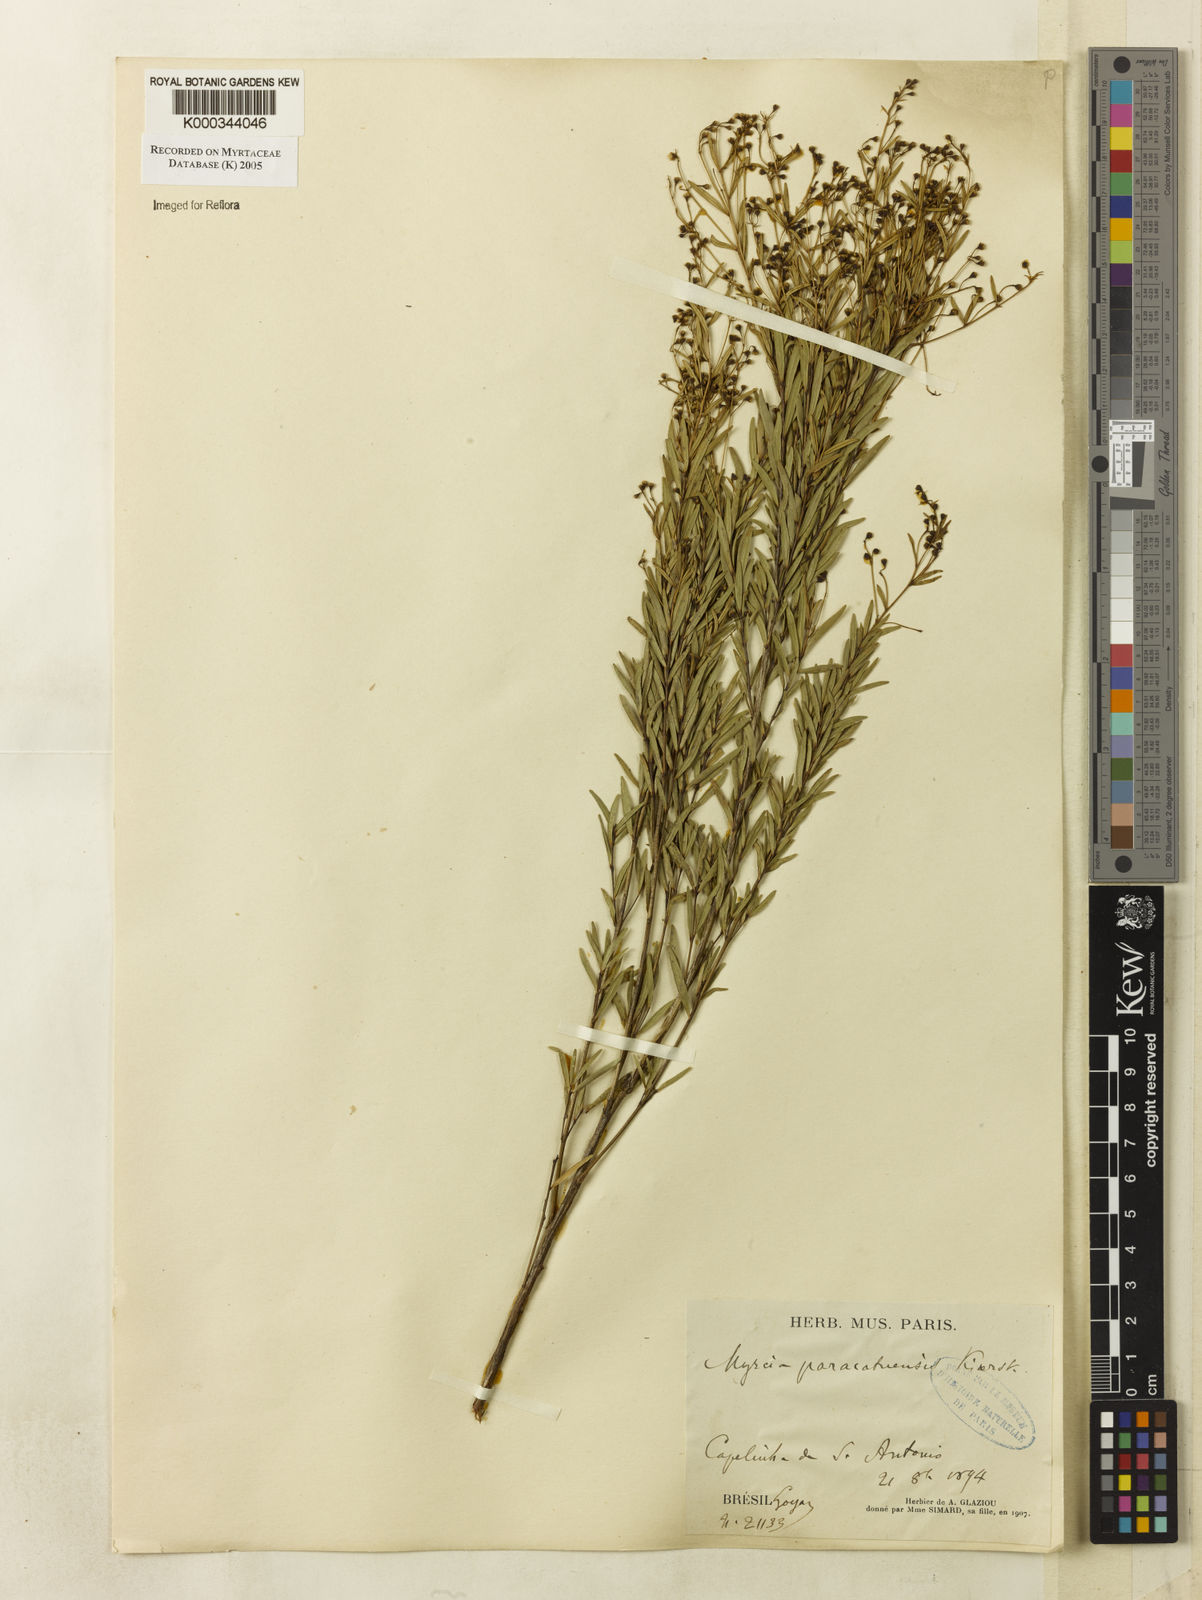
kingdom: Plantae
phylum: Tracheophyta
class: Magnoliopsida
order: Myrtales
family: Myrtaceae
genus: Myrcia
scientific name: Myrcia paracatuensis
